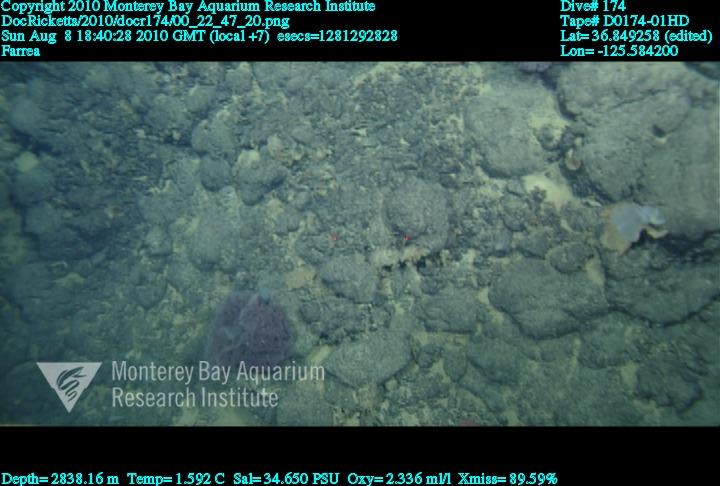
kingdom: Animalia
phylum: Porifera
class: Hexactinellida
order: Sceptrulophora
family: Farreidae
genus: Farrea
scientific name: Farrea
